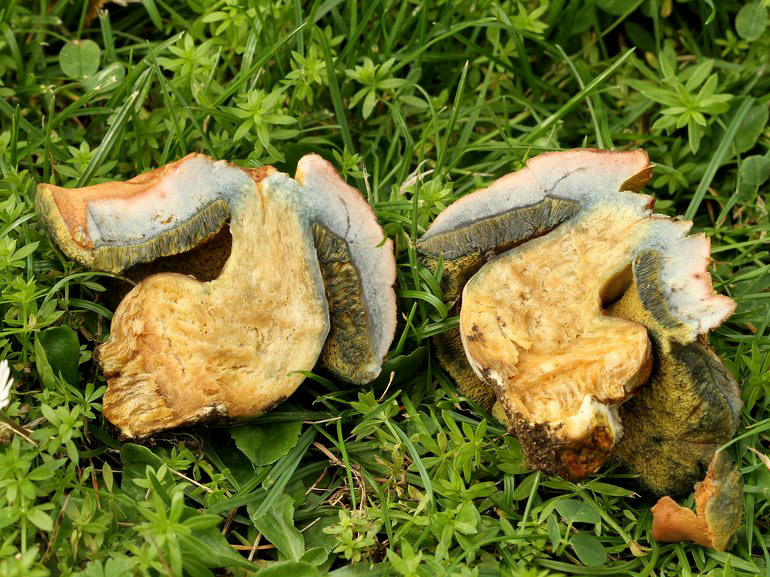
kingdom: Fungi
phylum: Basidiomycota
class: Agaricomycetes
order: Boletales
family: Boletaceae
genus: Hortiboletus
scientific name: Hortiboletus bubalinus
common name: aurora-rørhat
